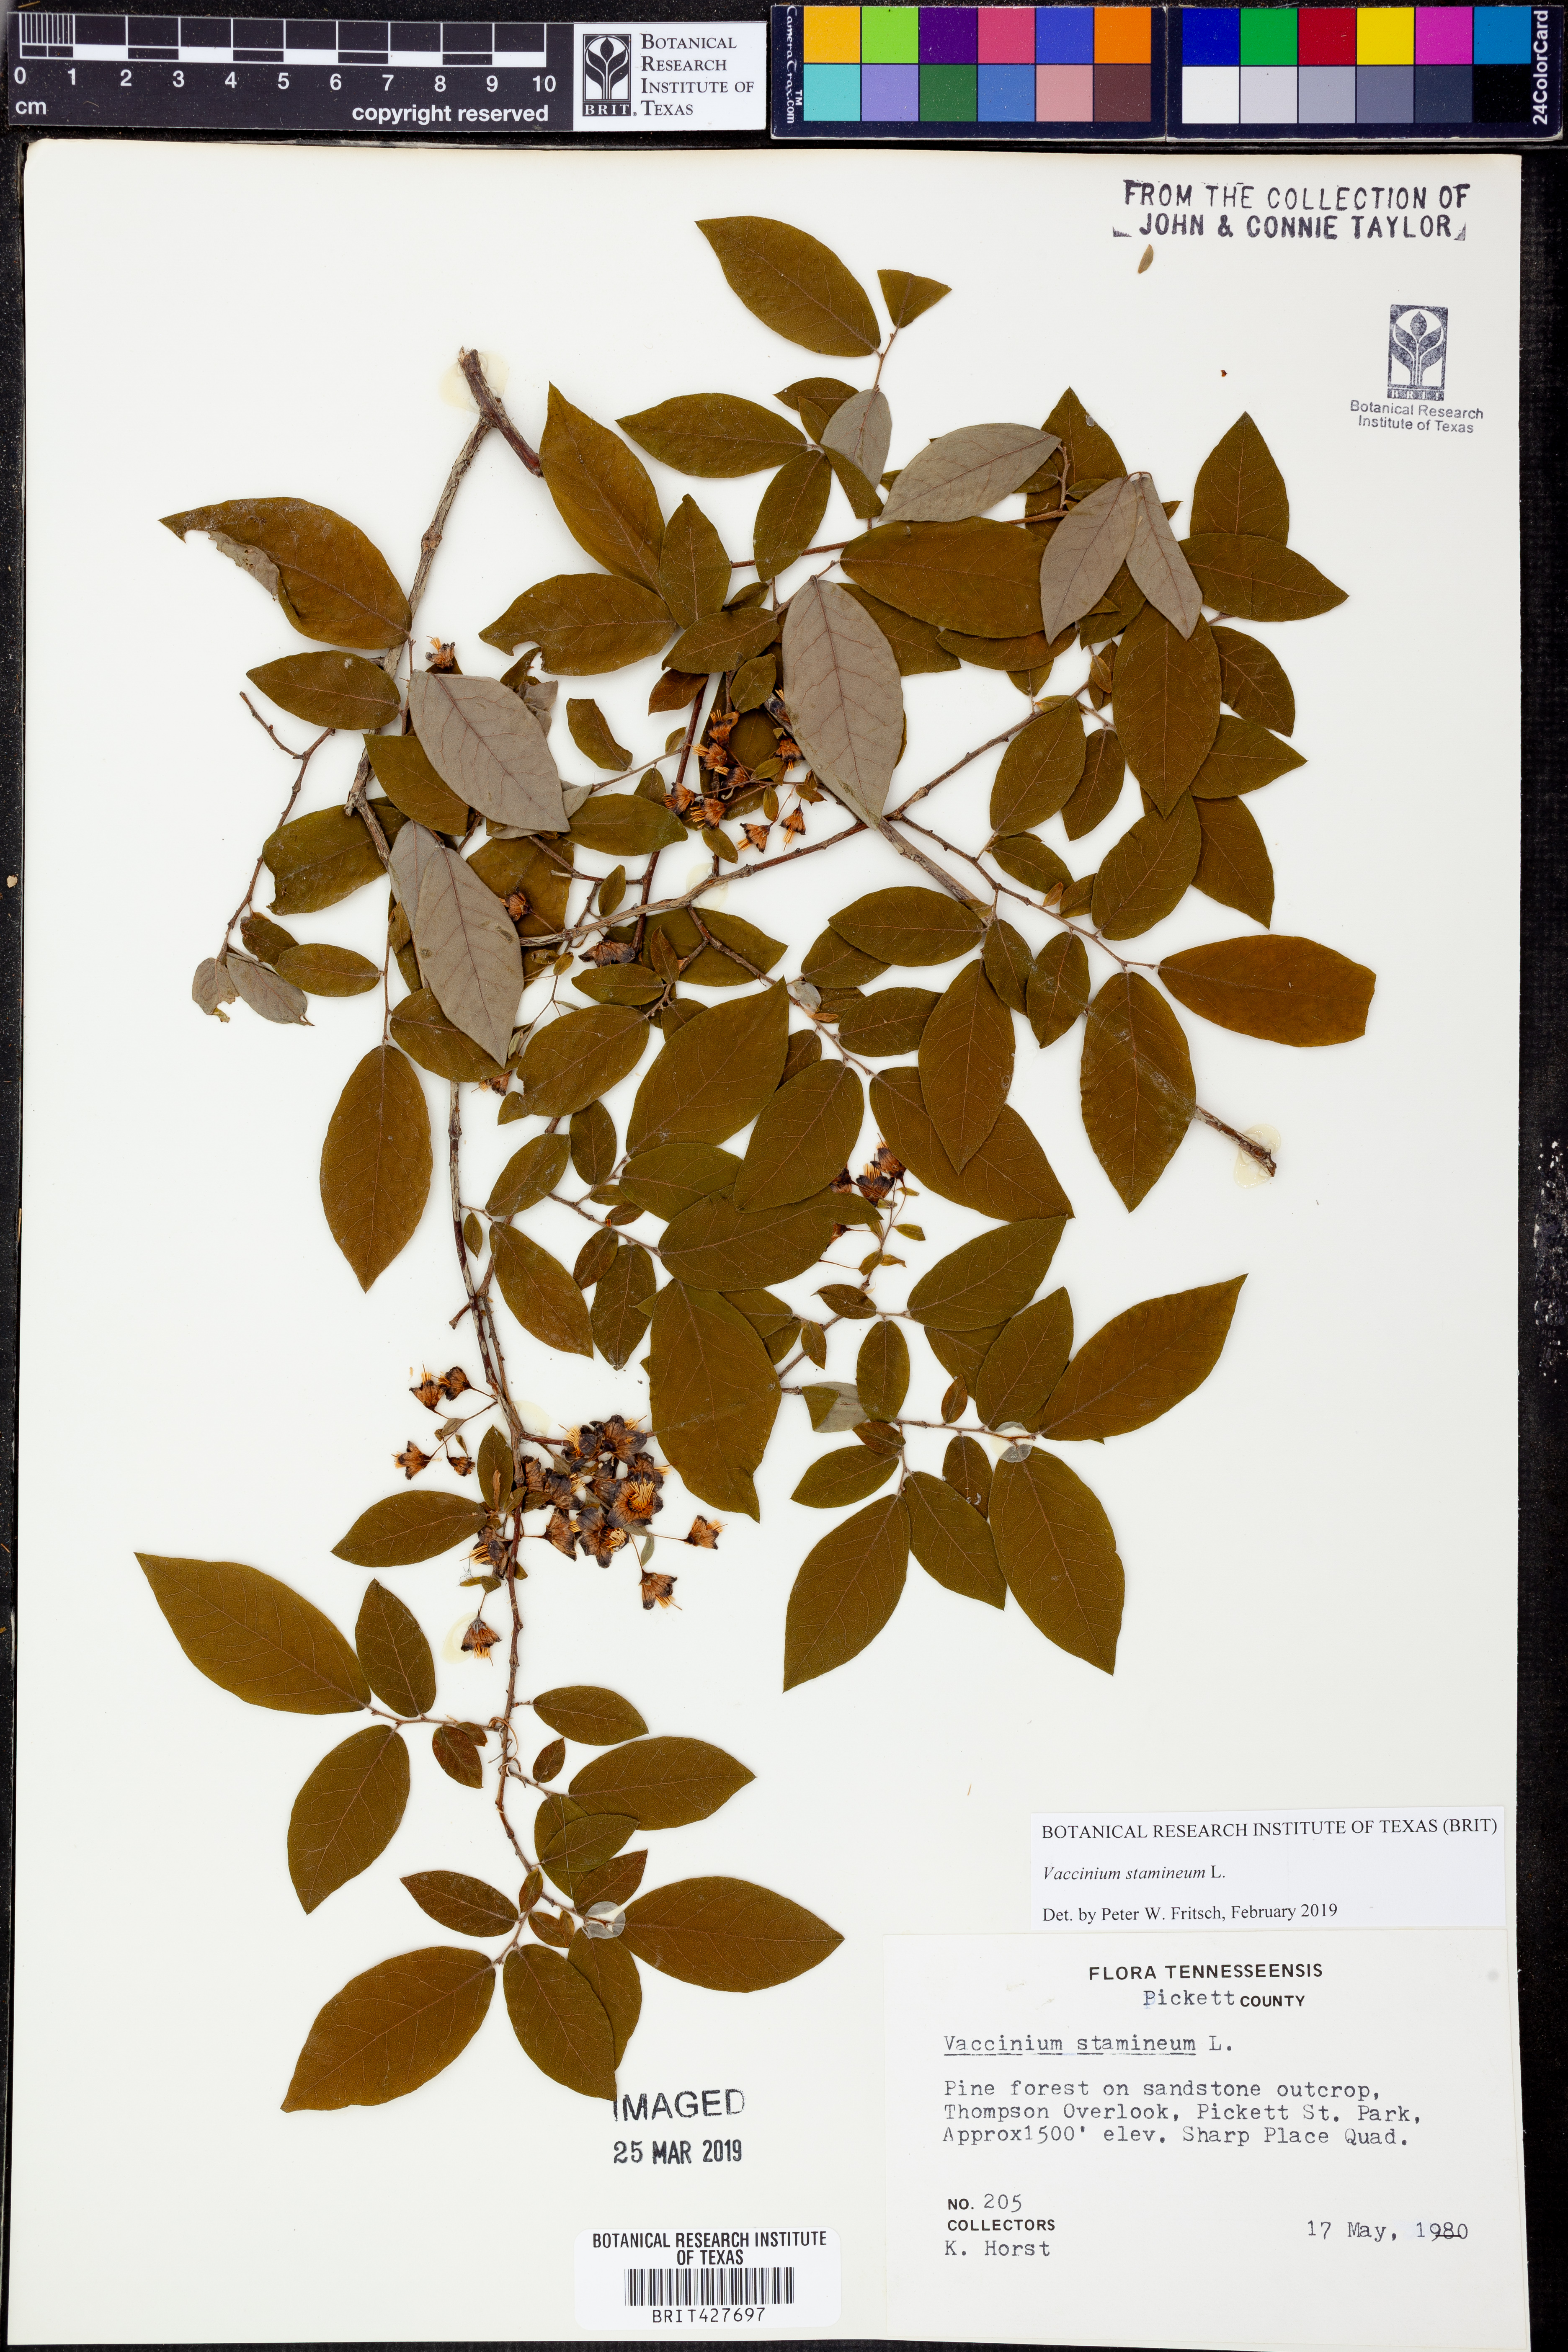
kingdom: Plantae
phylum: Tracheophyta
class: Magnoliopsida
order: Ericales
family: Ericaceae
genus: Vaccinium
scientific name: Vaccinium stamineum
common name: Deerberry
